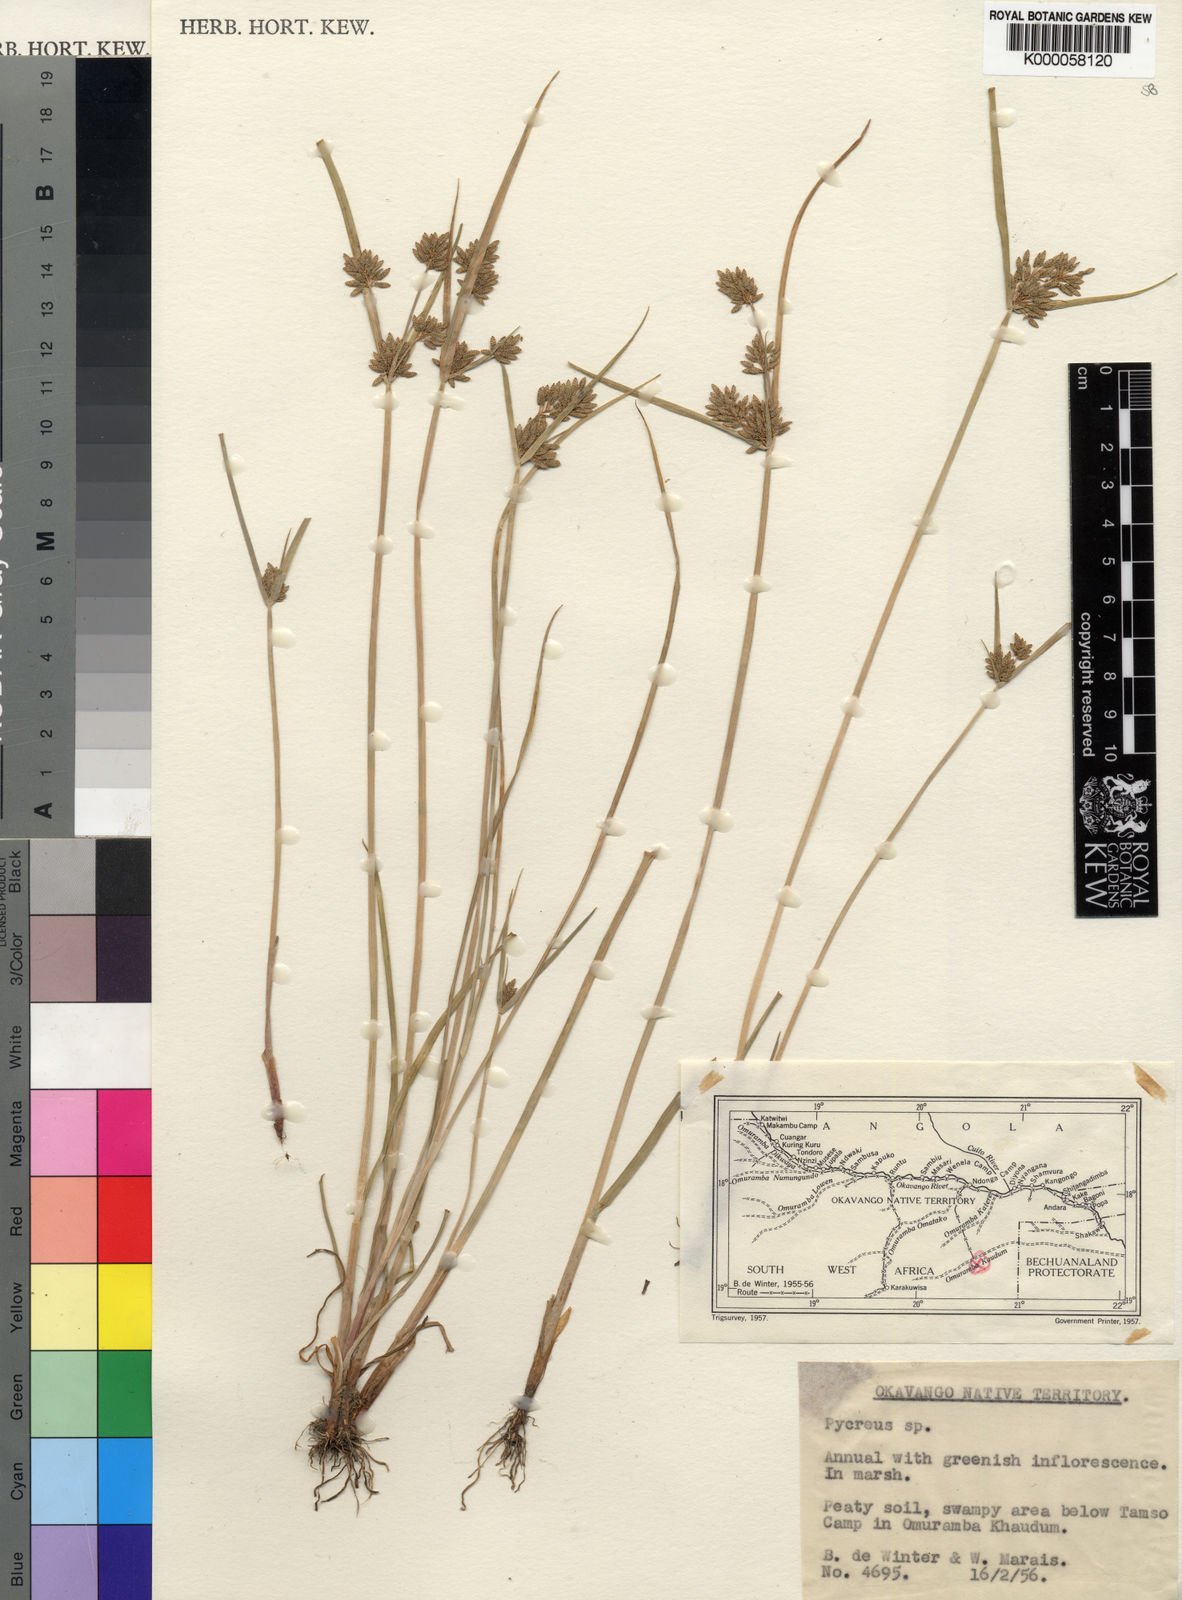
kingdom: Plantae
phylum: Tracheophyta
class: Liliopsida
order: Poales
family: Cyperaceae
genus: Cyperus
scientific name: Cyperus okavangensis
